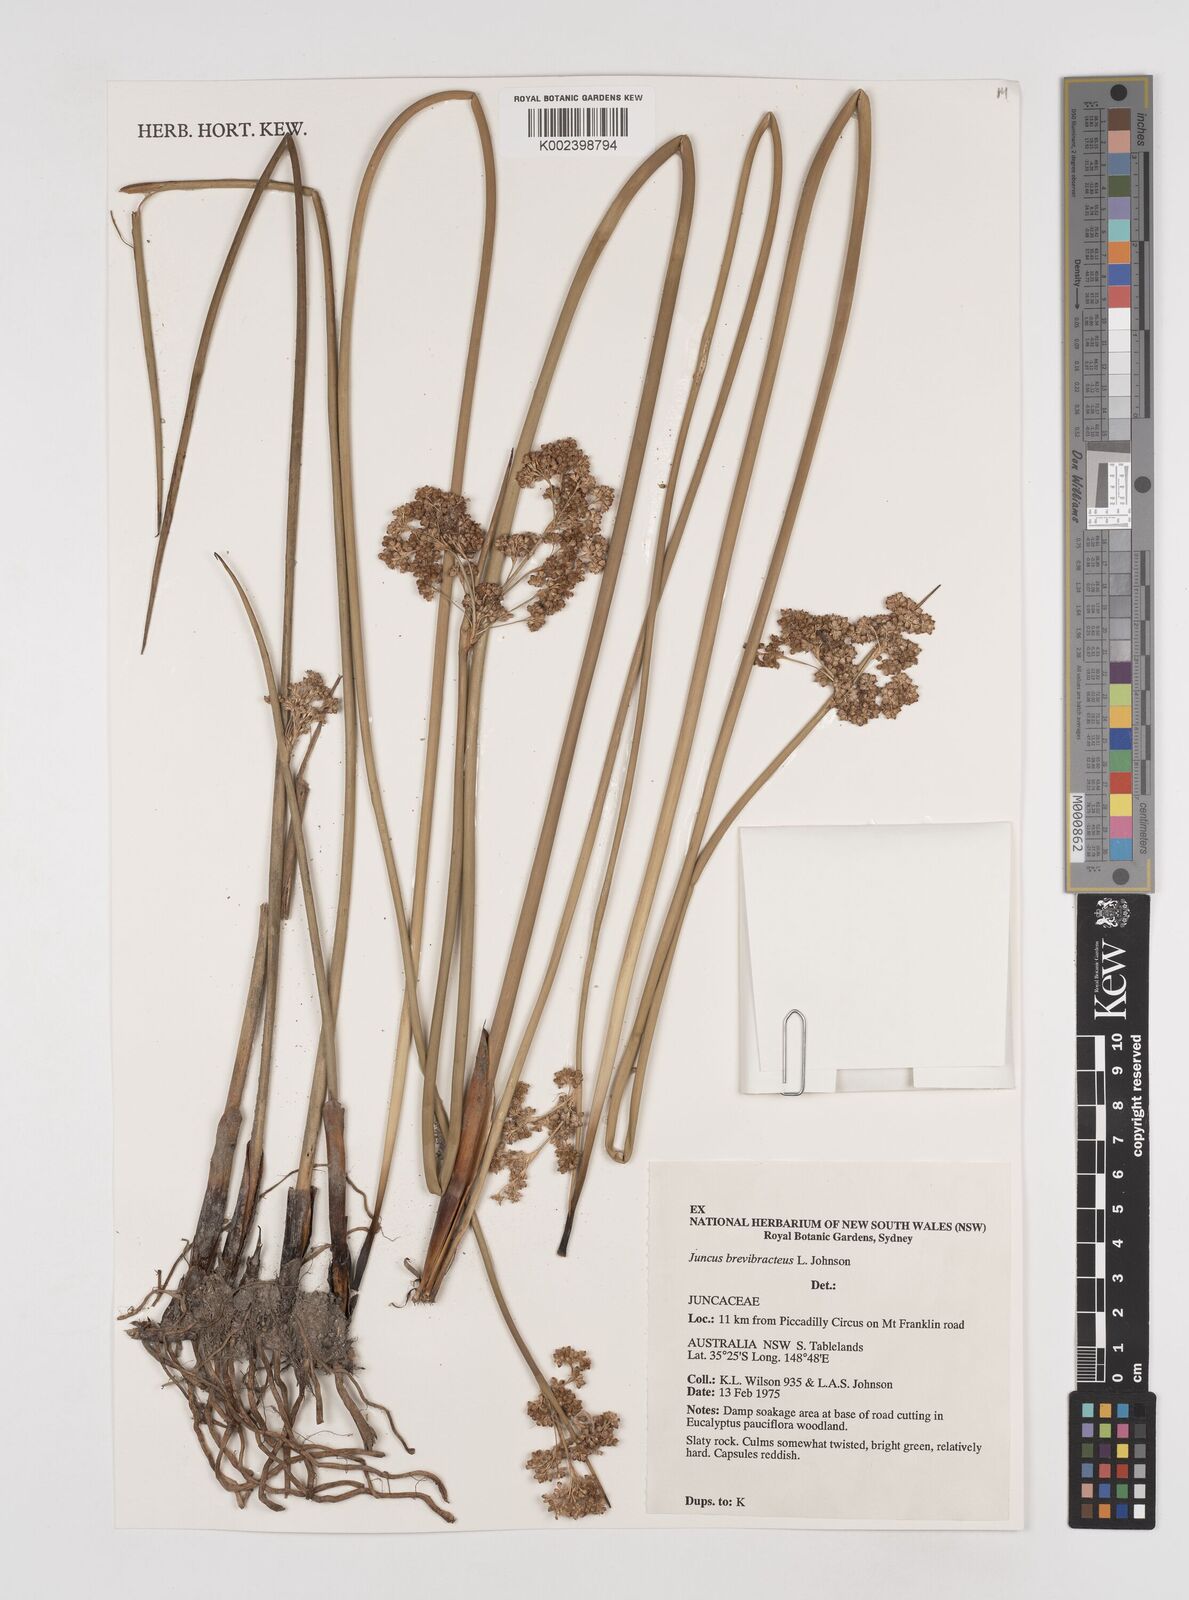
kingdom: Plantae
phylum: Tracheophyta
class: Liliopsida
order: Poales
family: Juncaceae
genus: Juncus
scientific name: Juncus brevibracteus
